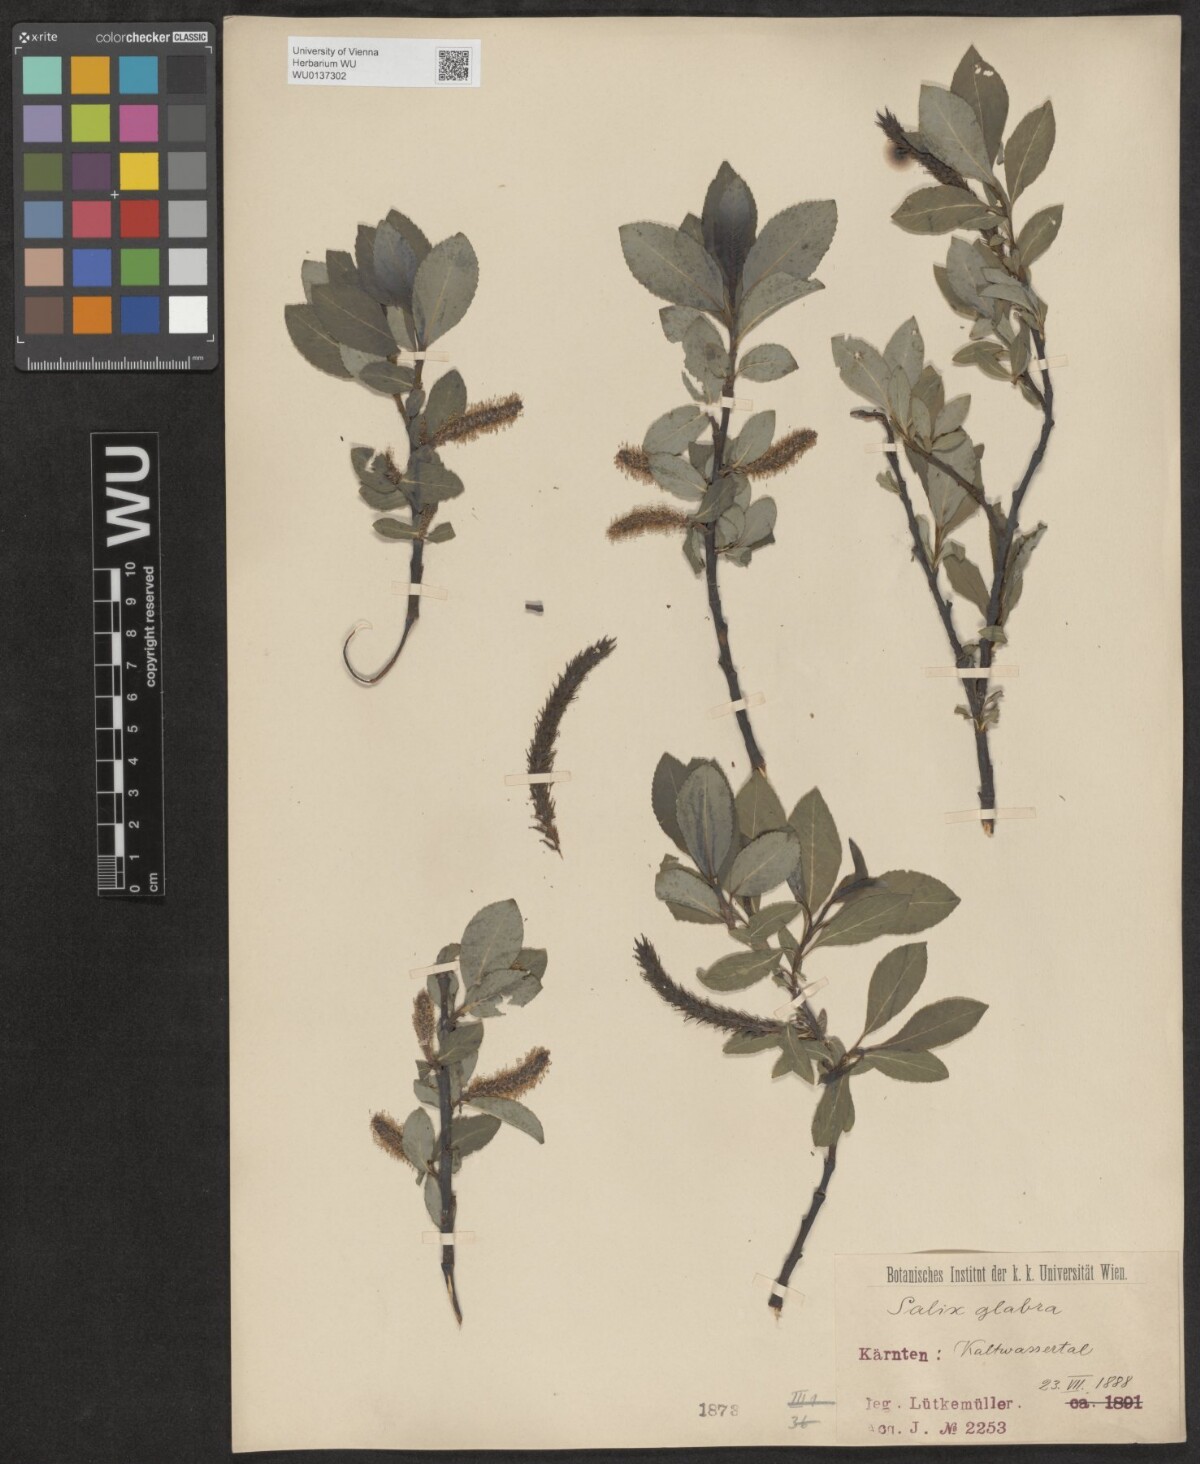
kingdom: Plantae
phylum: Tracheophyta
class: Magnoliopsida
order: Malpighiales
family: Salicaceae
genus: Salix
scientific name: Salix glabra
